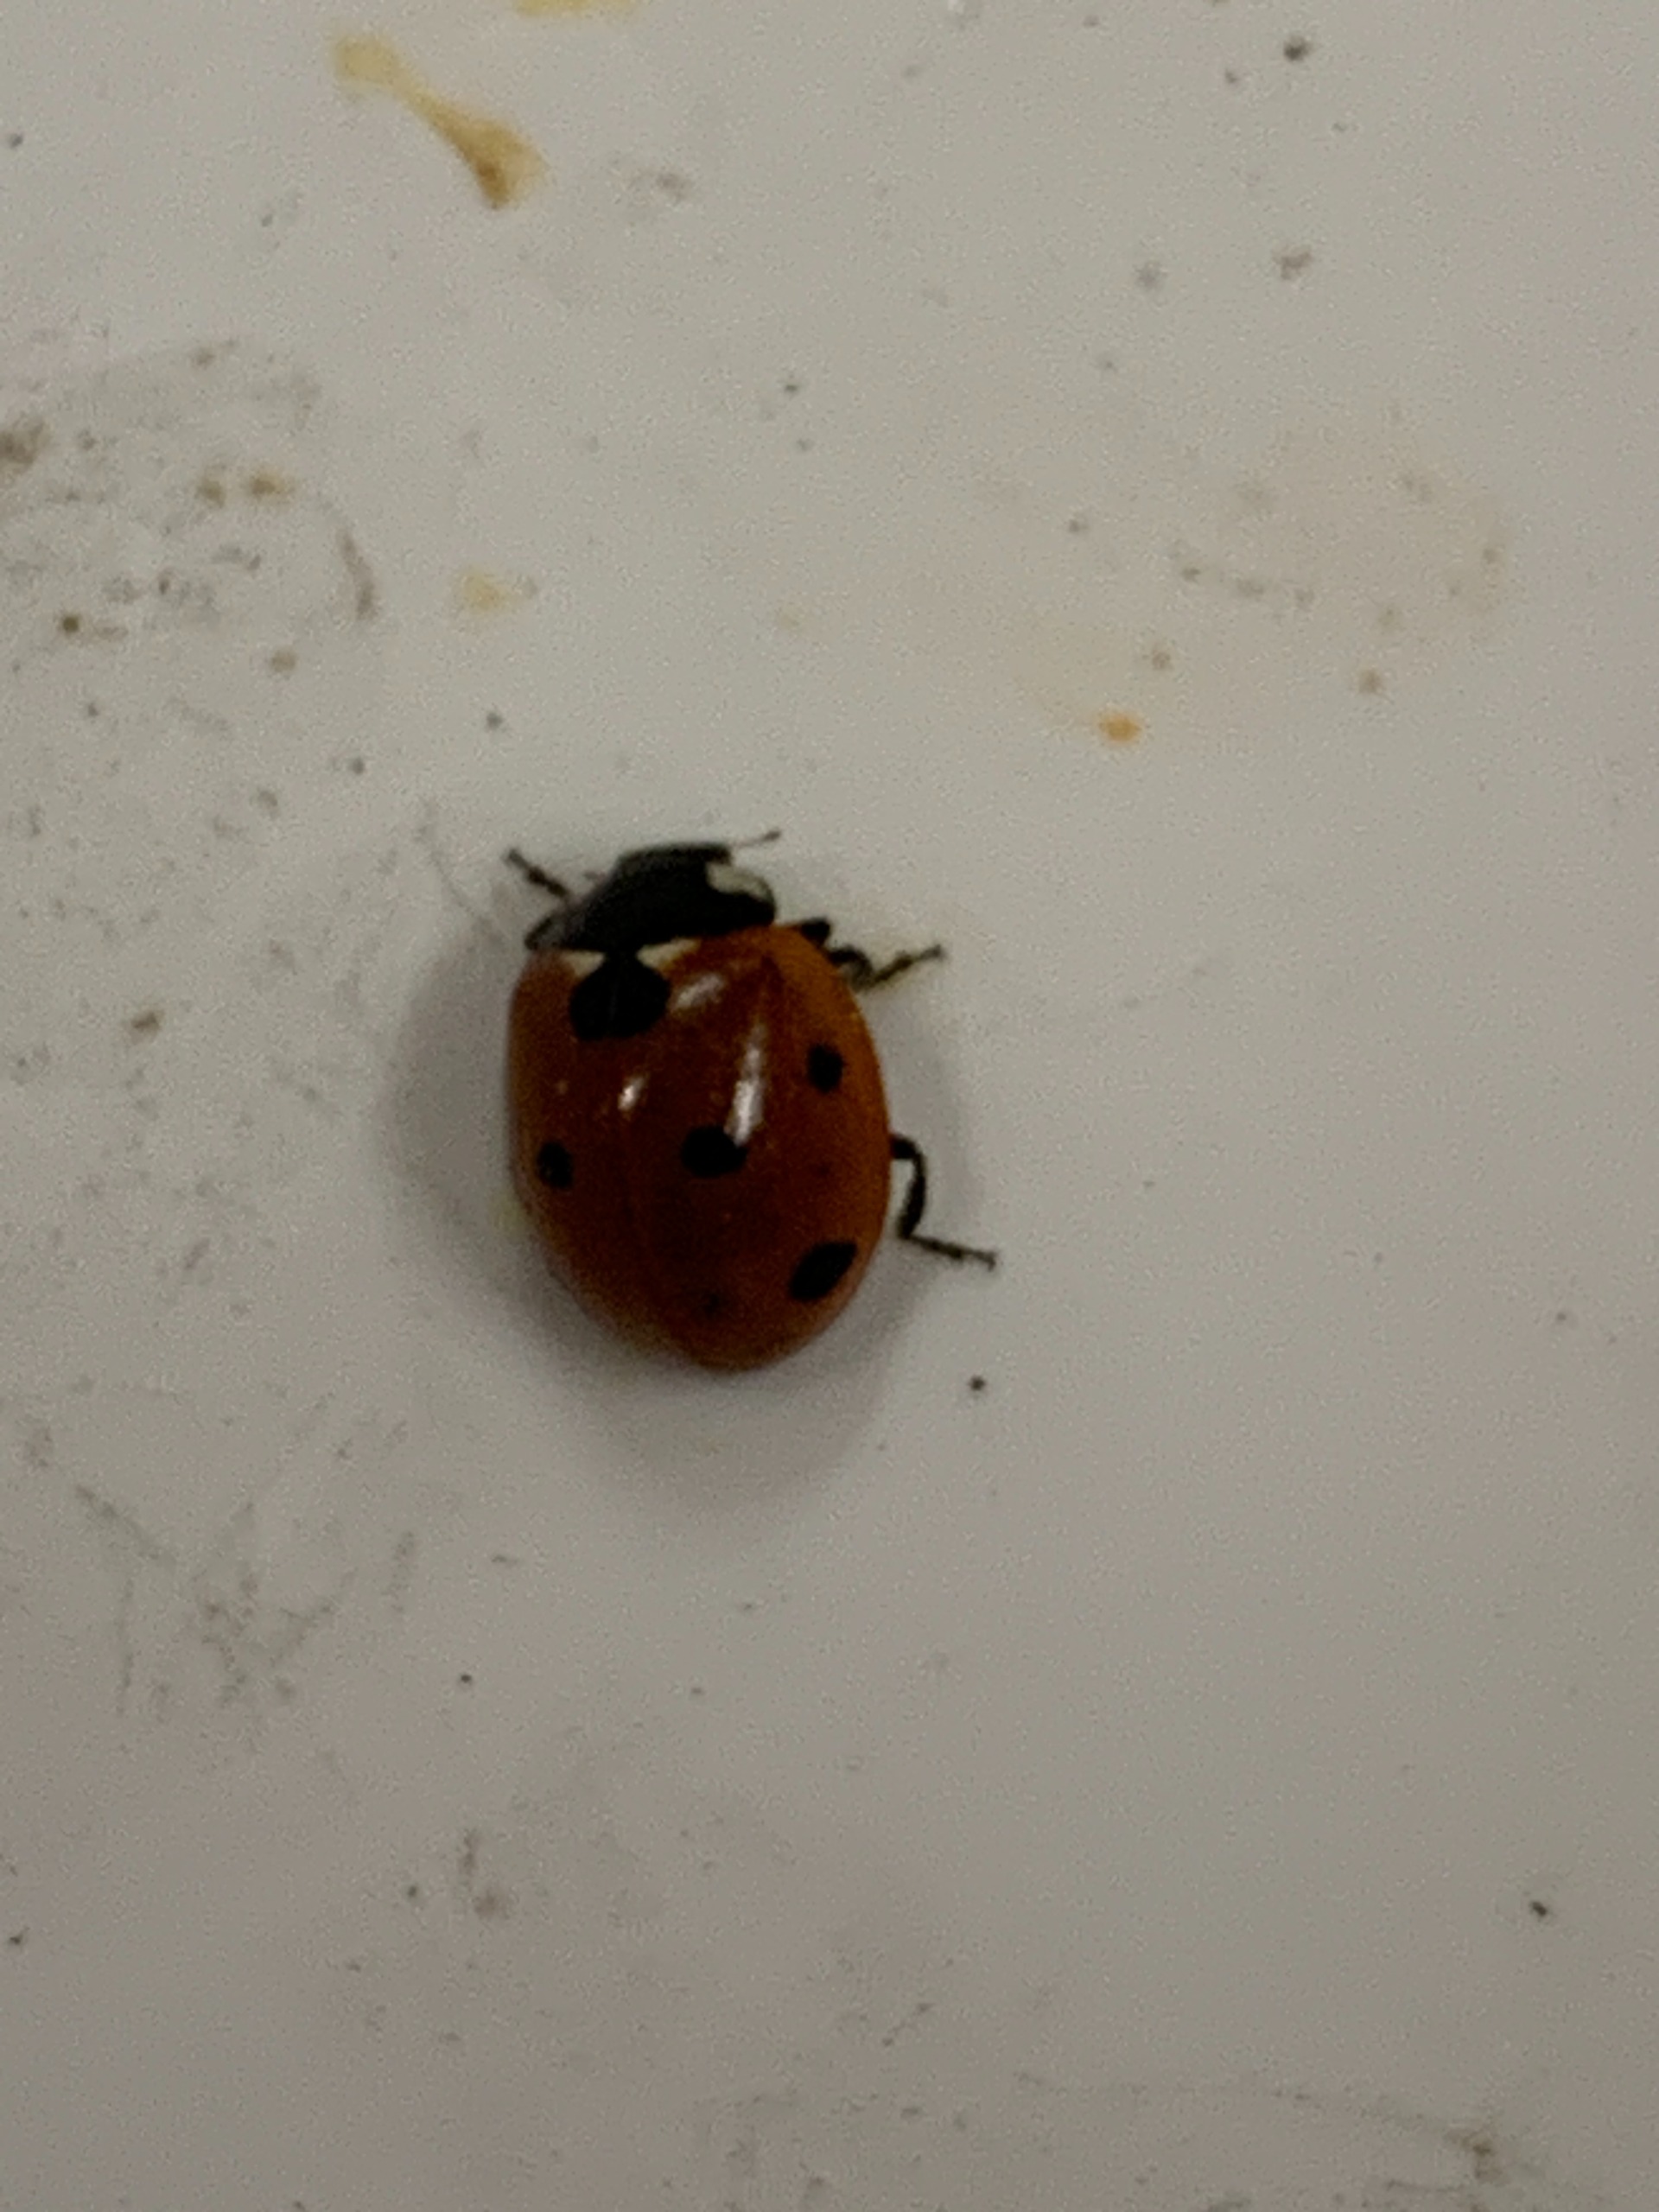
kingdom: Animalia
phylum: Arthropoda
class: Insecta
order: Coleoptera
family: Coccinellidae
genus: Coccinella
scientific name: Coccinella septempunctata
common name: Syvplettet mariehøne
